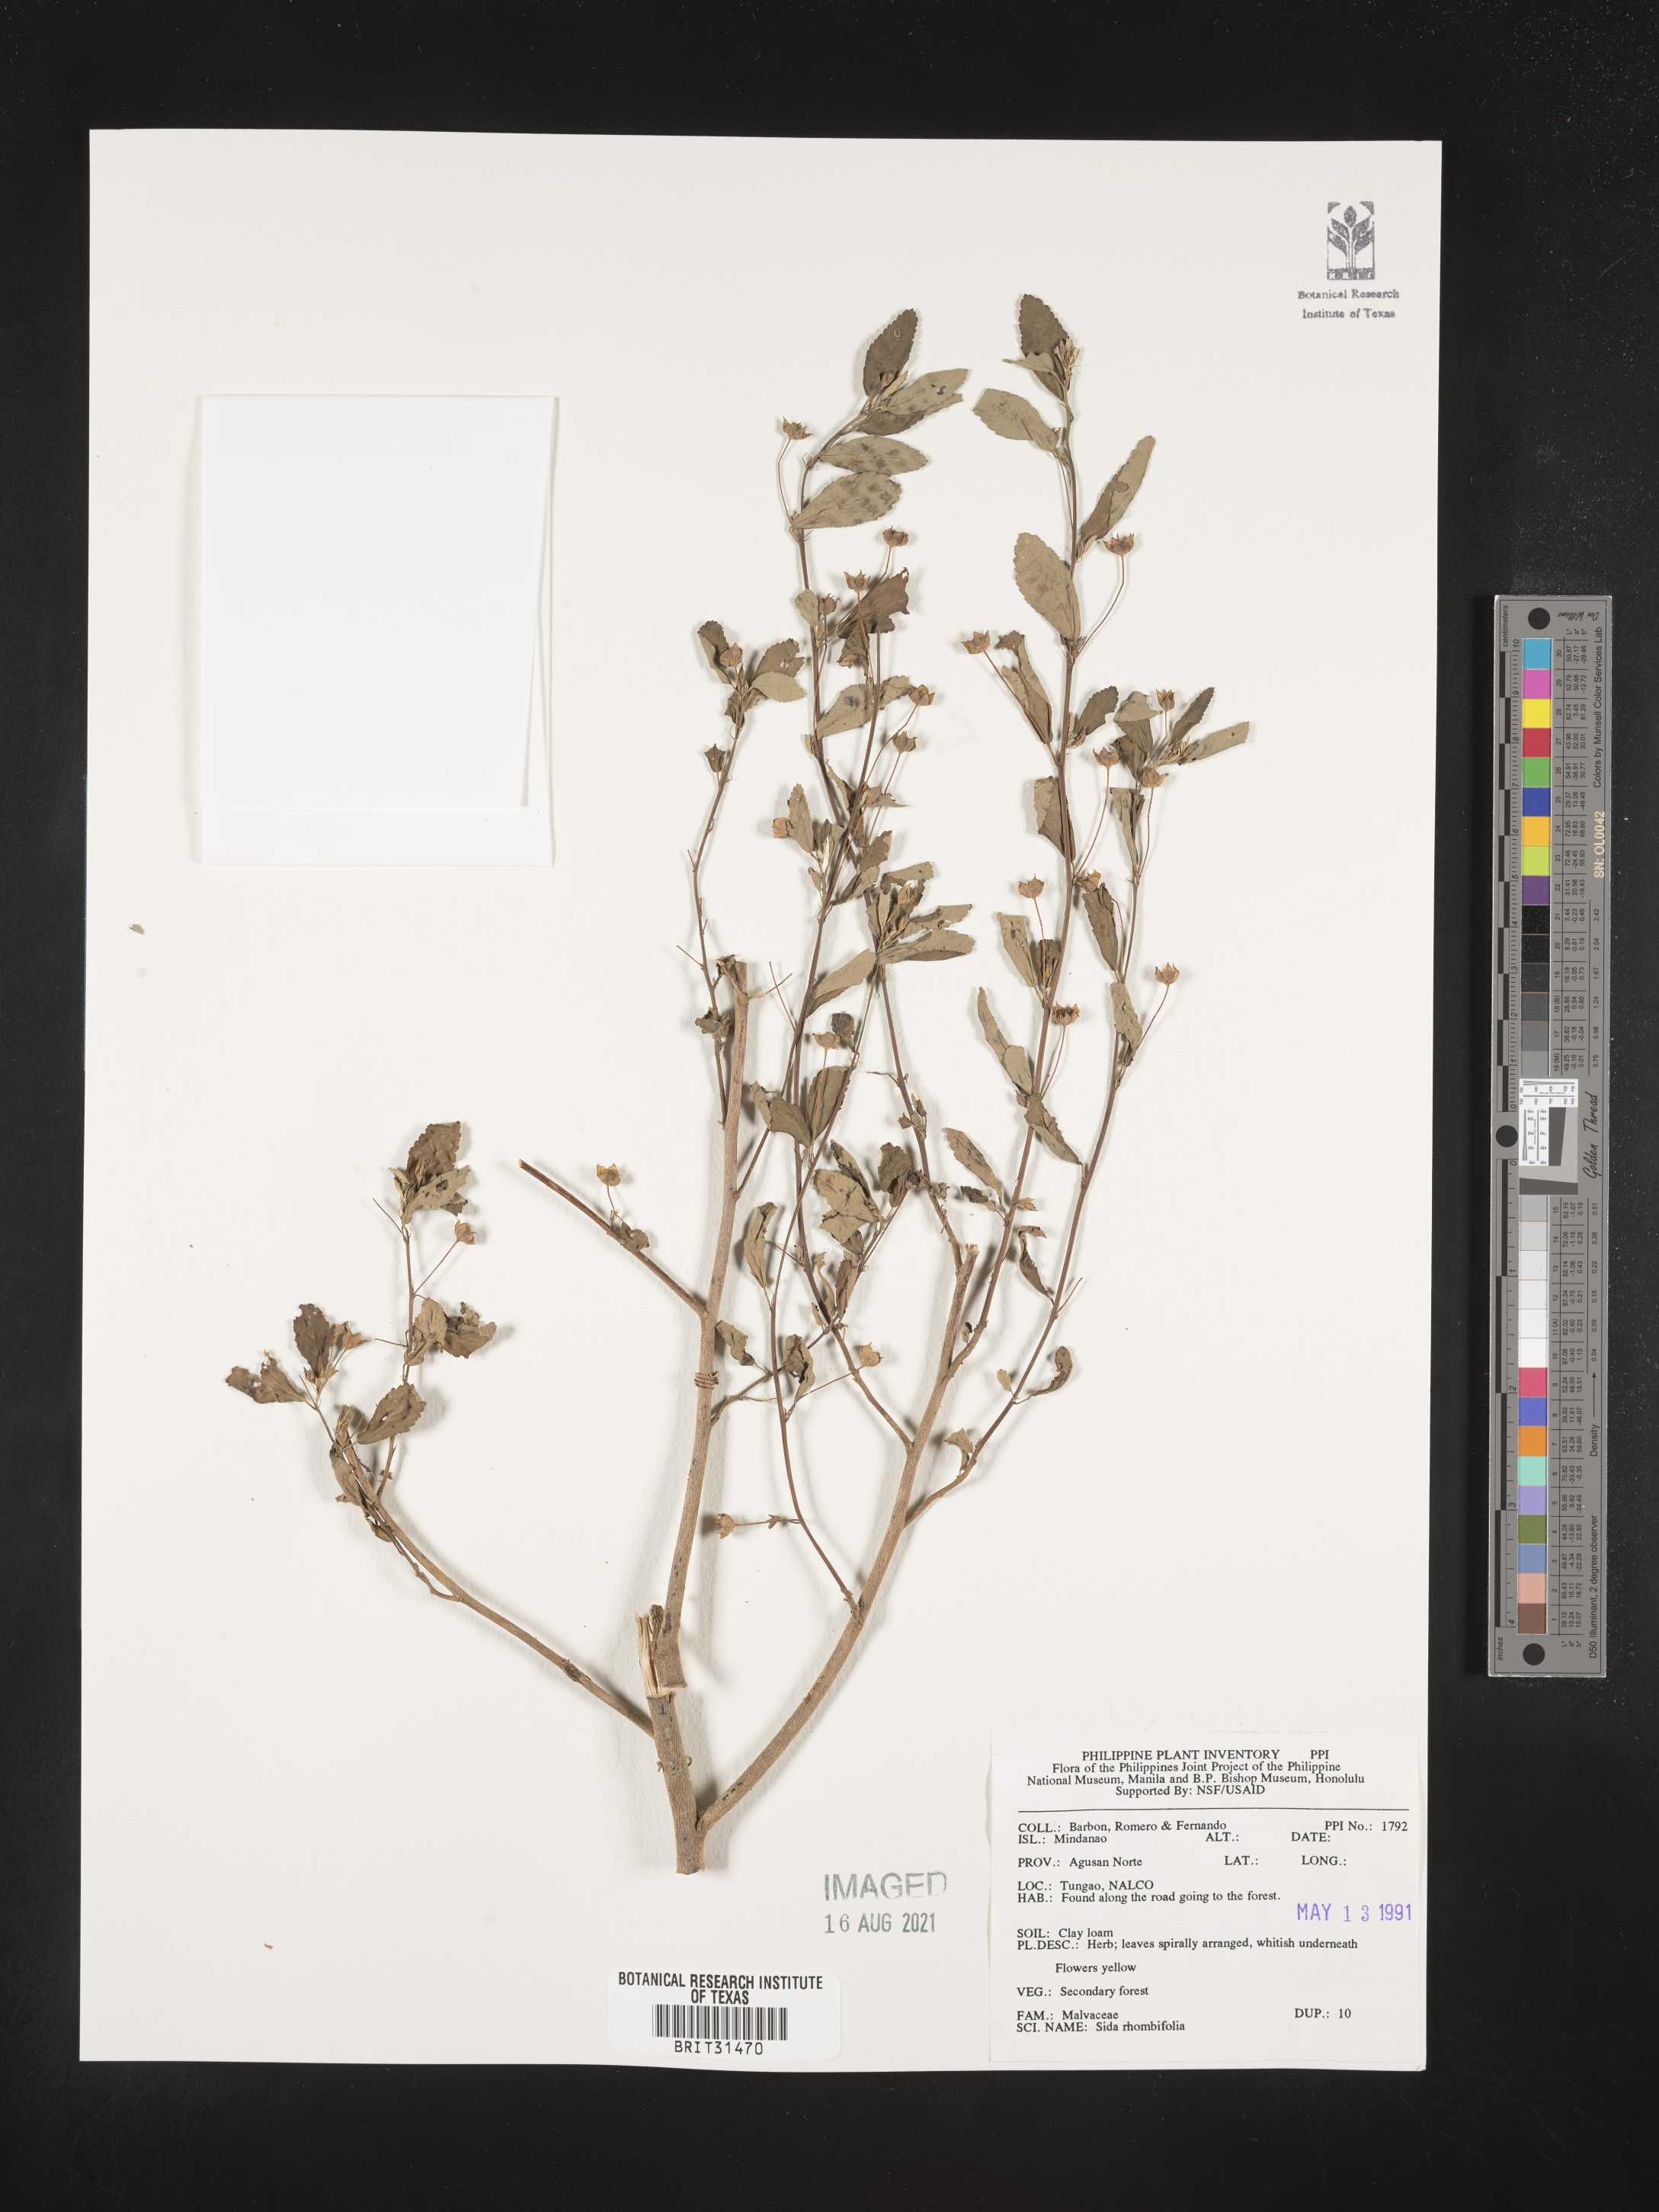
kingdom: Plantae
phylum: Tracheophyta
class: Magnoliopsida
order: Malvales
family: Malvaceae
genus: Sida
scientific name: Sida rhombifolia
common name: Queensland-hemp
